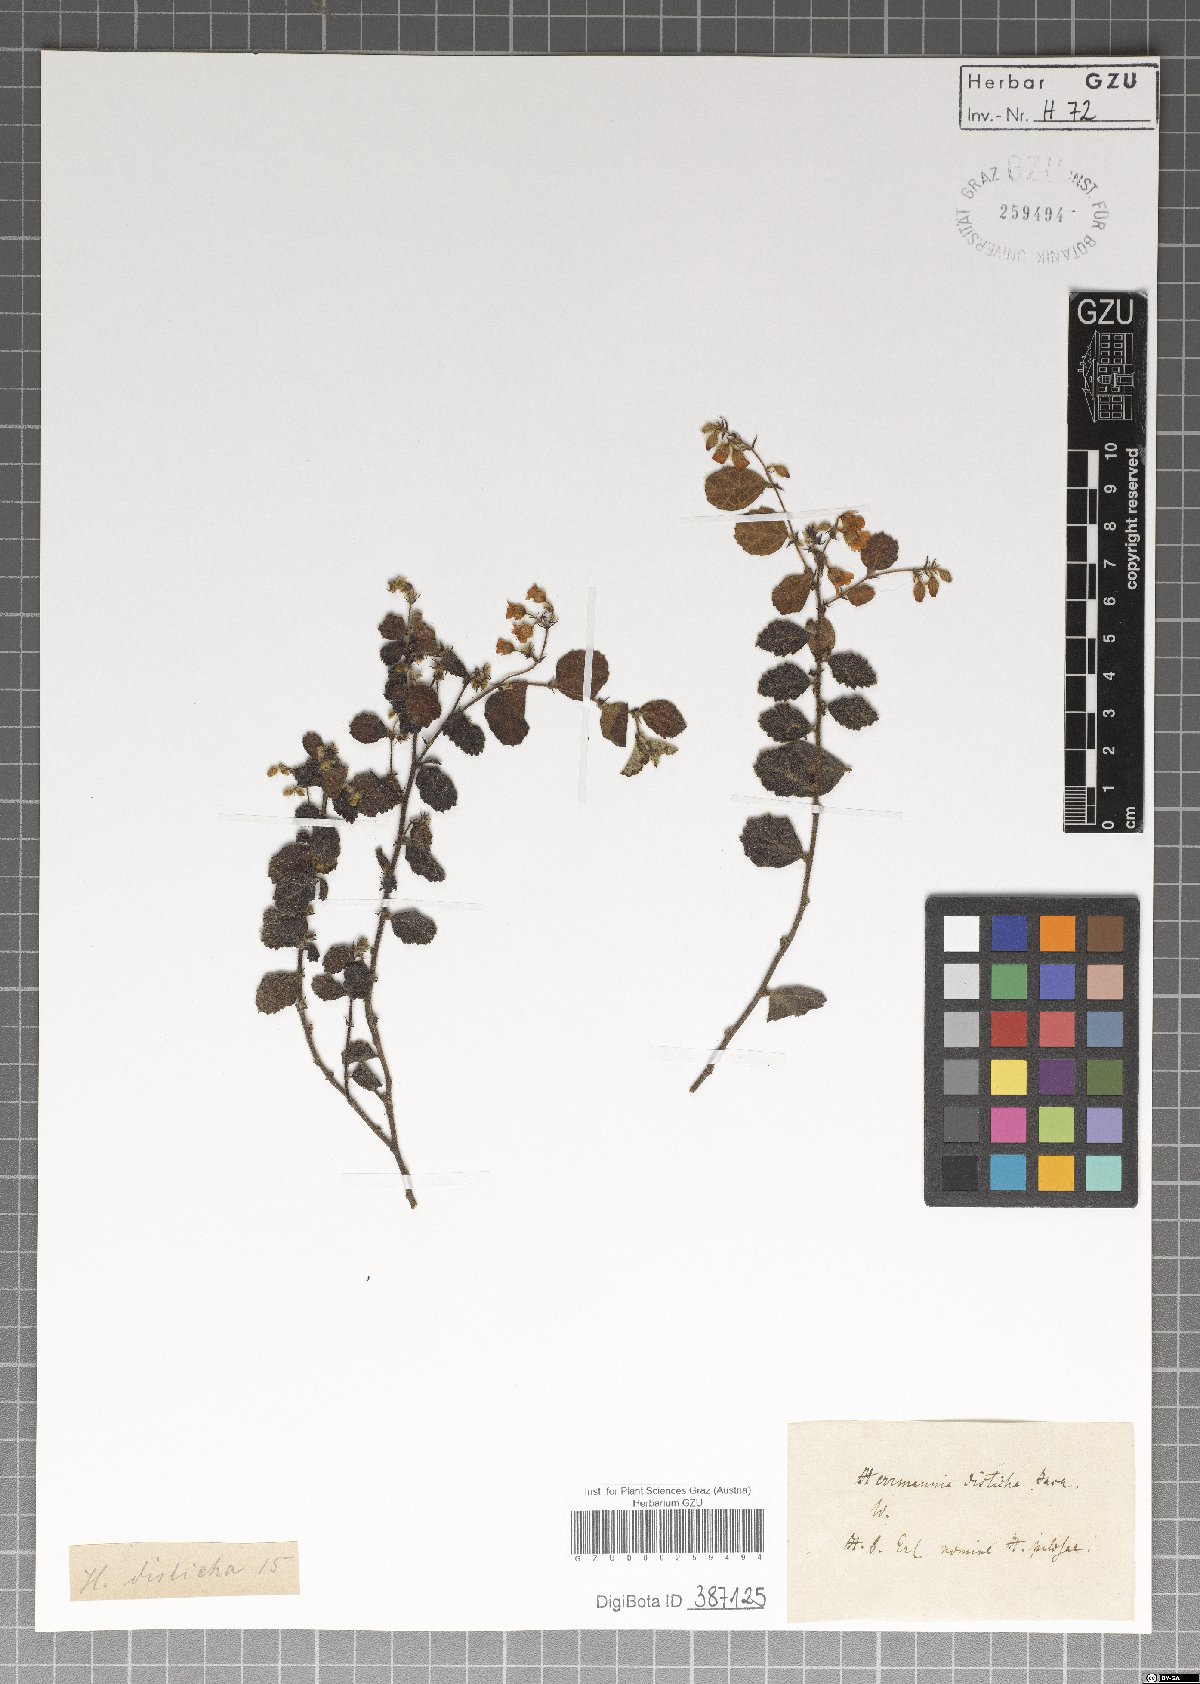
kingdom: Plantae
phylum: Tracheophyta
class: Magnoliopsida
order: Malvales
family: Malvaceae
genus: Hermannia
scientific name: Hermannia disticha
